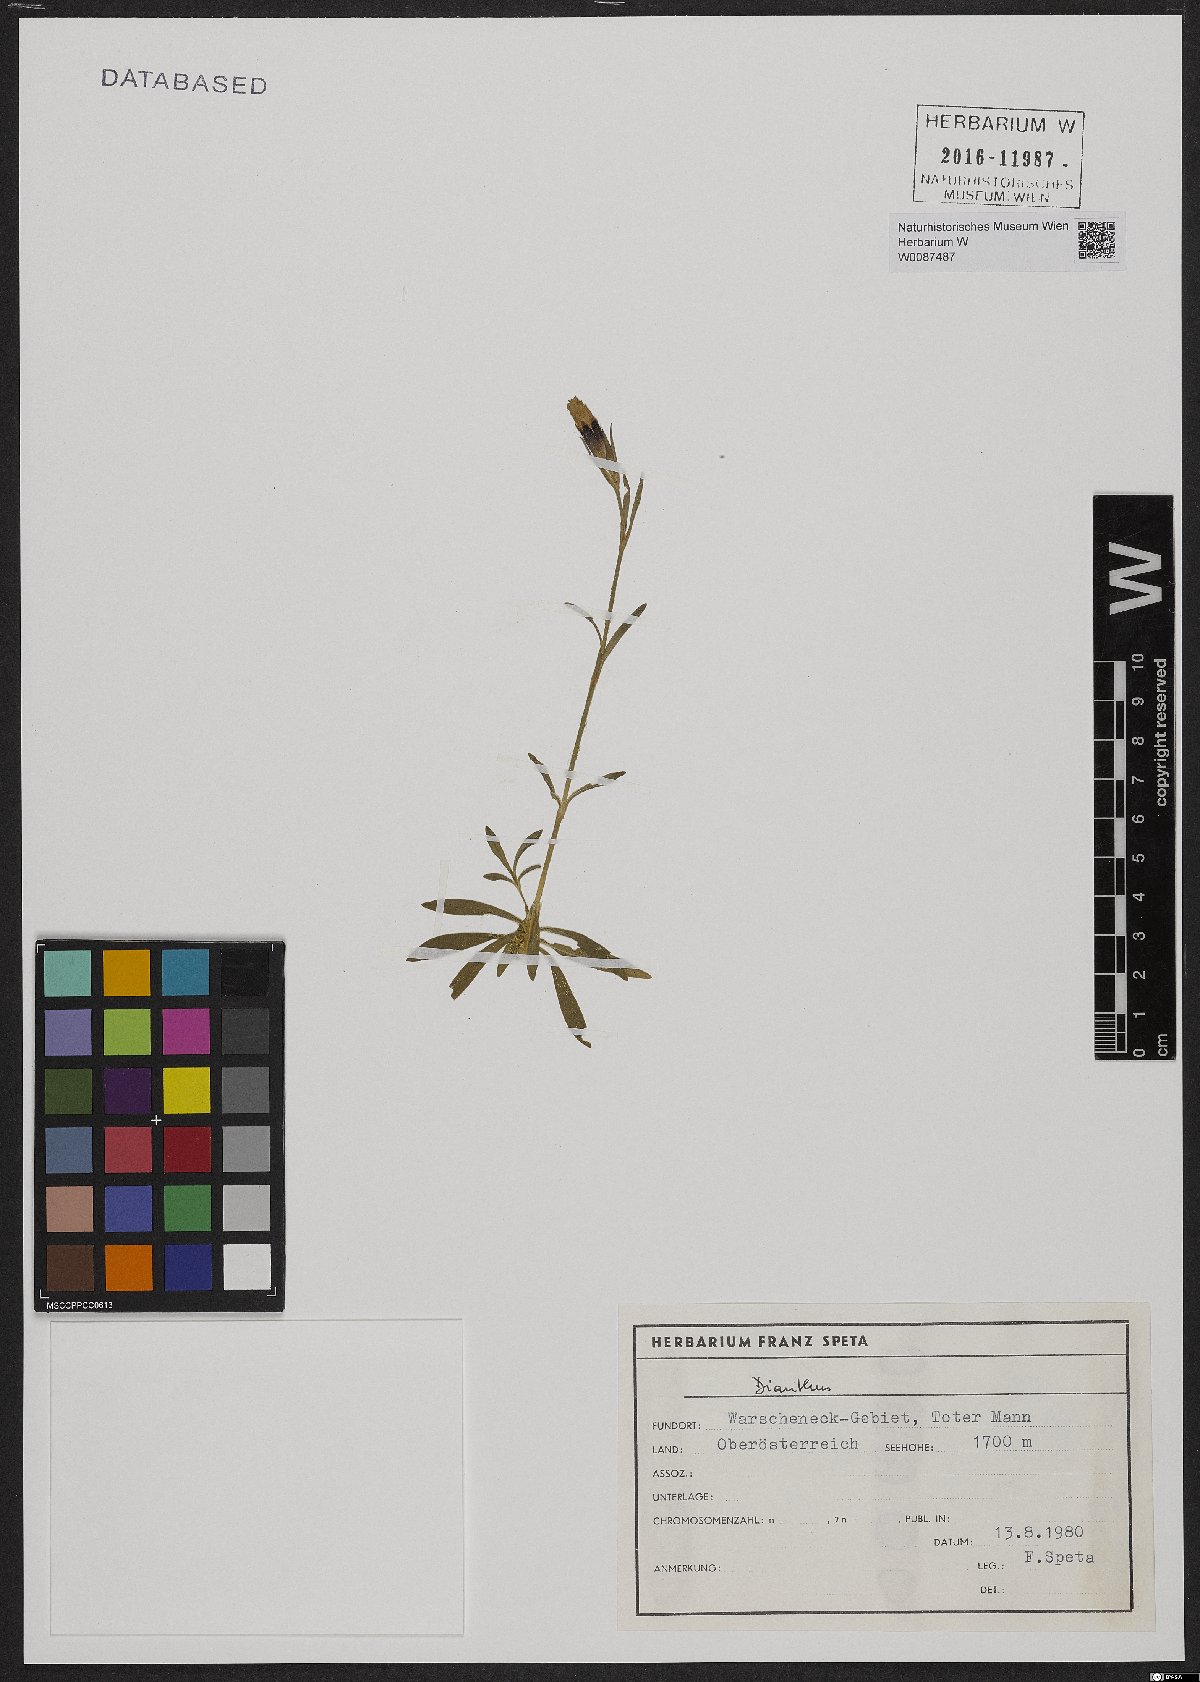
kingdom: Plantae
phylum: Tracheophyta
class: Magnoliopsida
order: Caryophyllales
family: Caryophyllaceae
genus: Dianthus
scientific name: Dianthus alpinus
